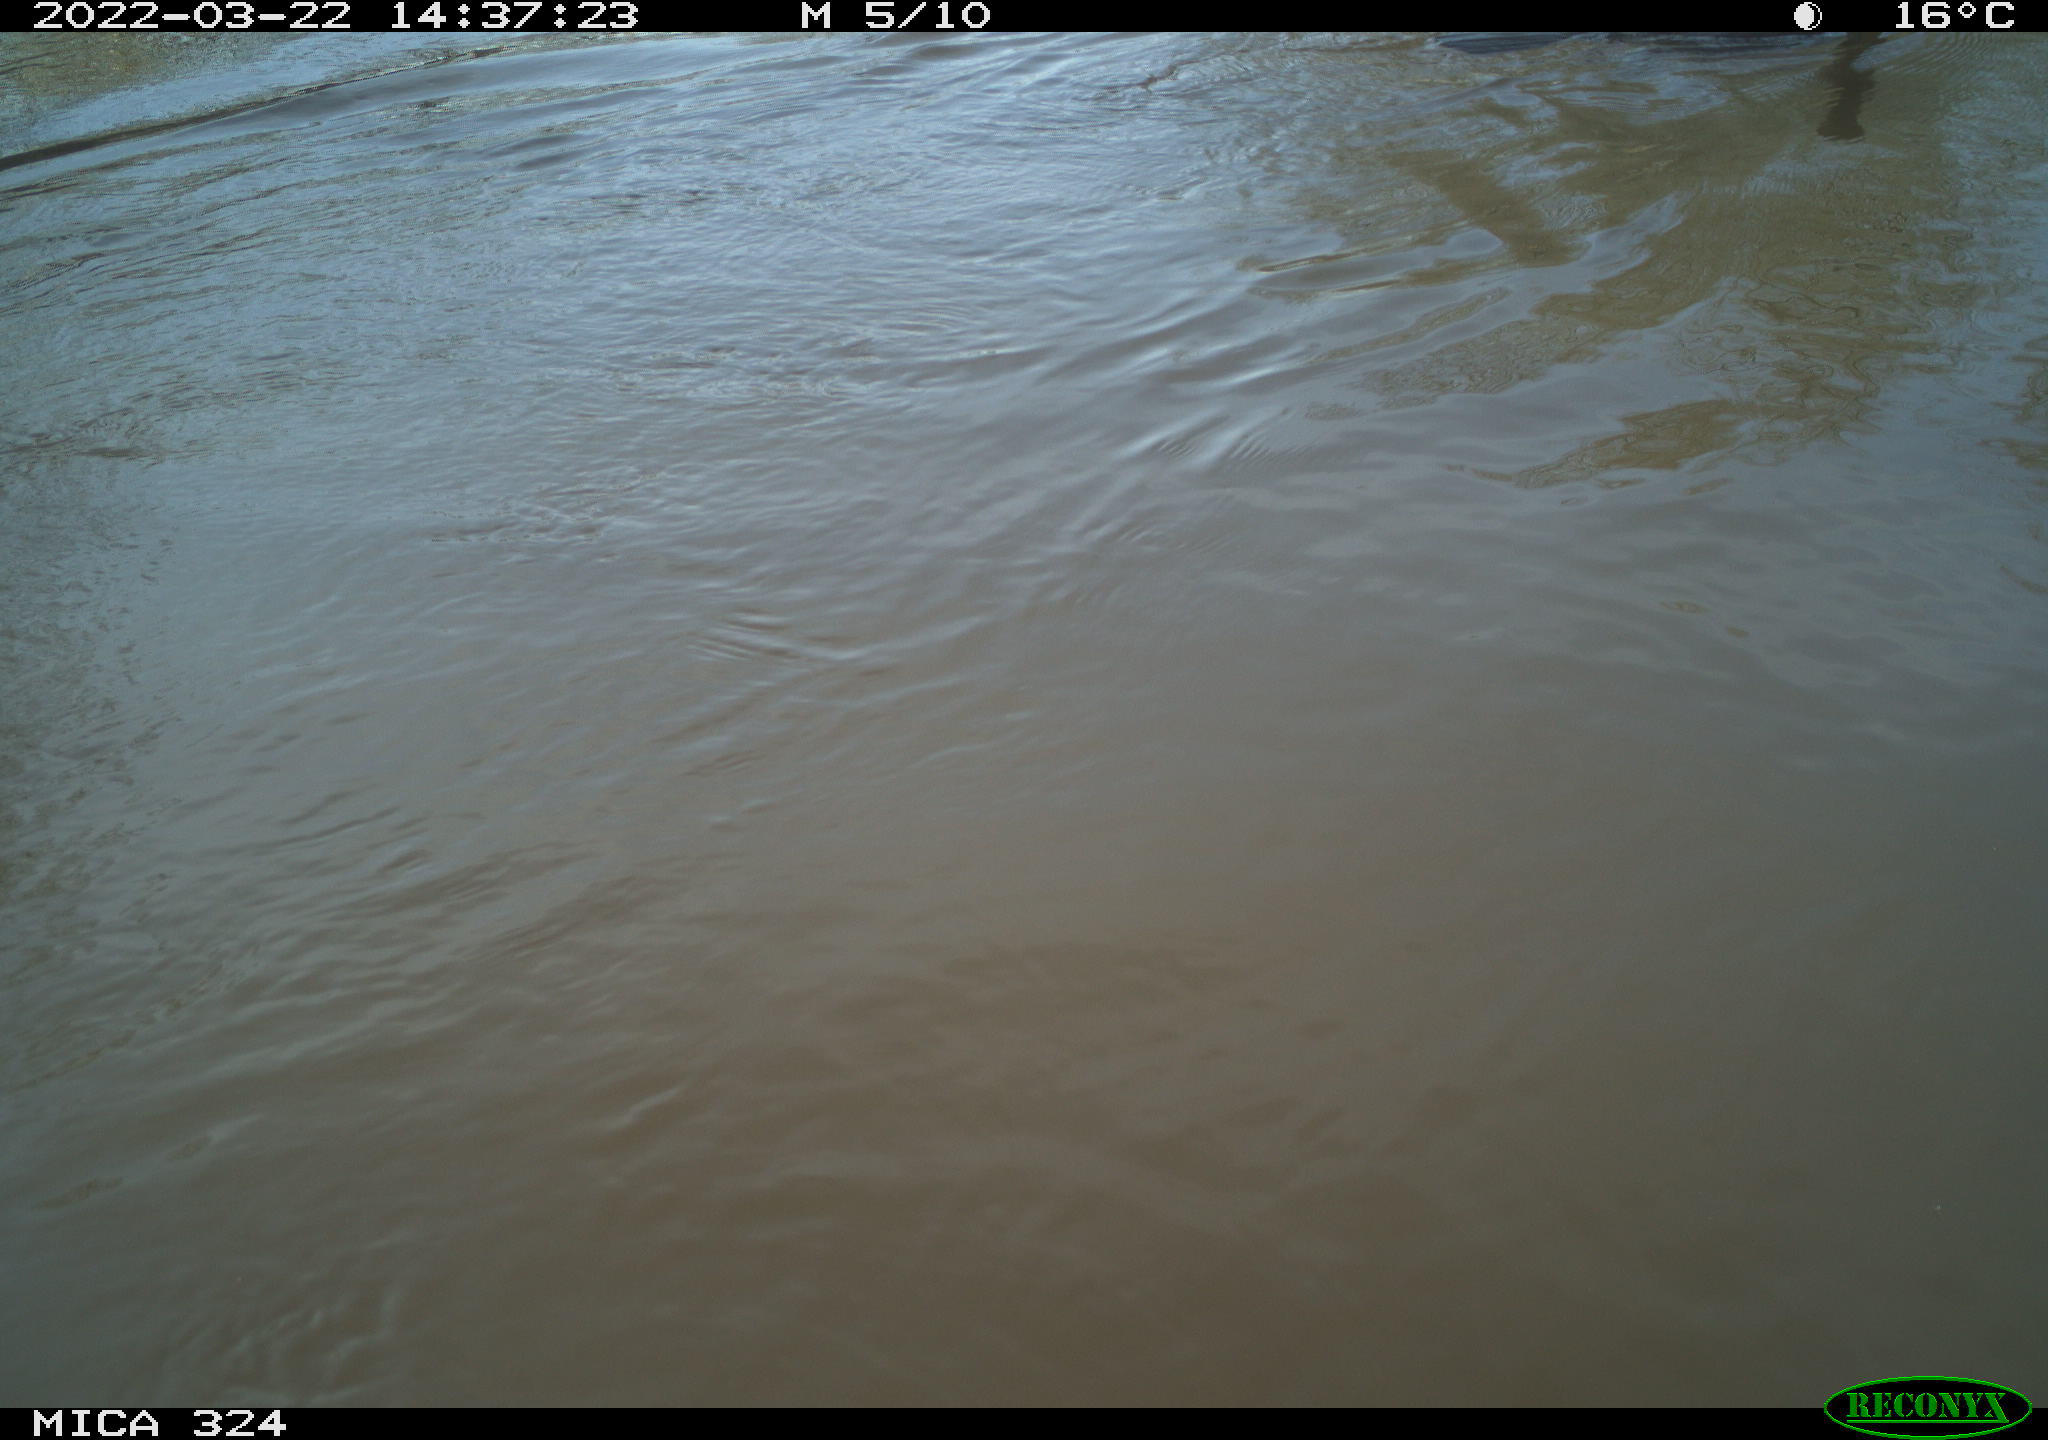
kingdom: Animalia
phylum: Chordata
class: Aves
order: Suliformes
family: Phalacrocoracidae
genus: Phalacrocorax
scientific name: Phalacrocorax carbo
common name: Great cormorant
